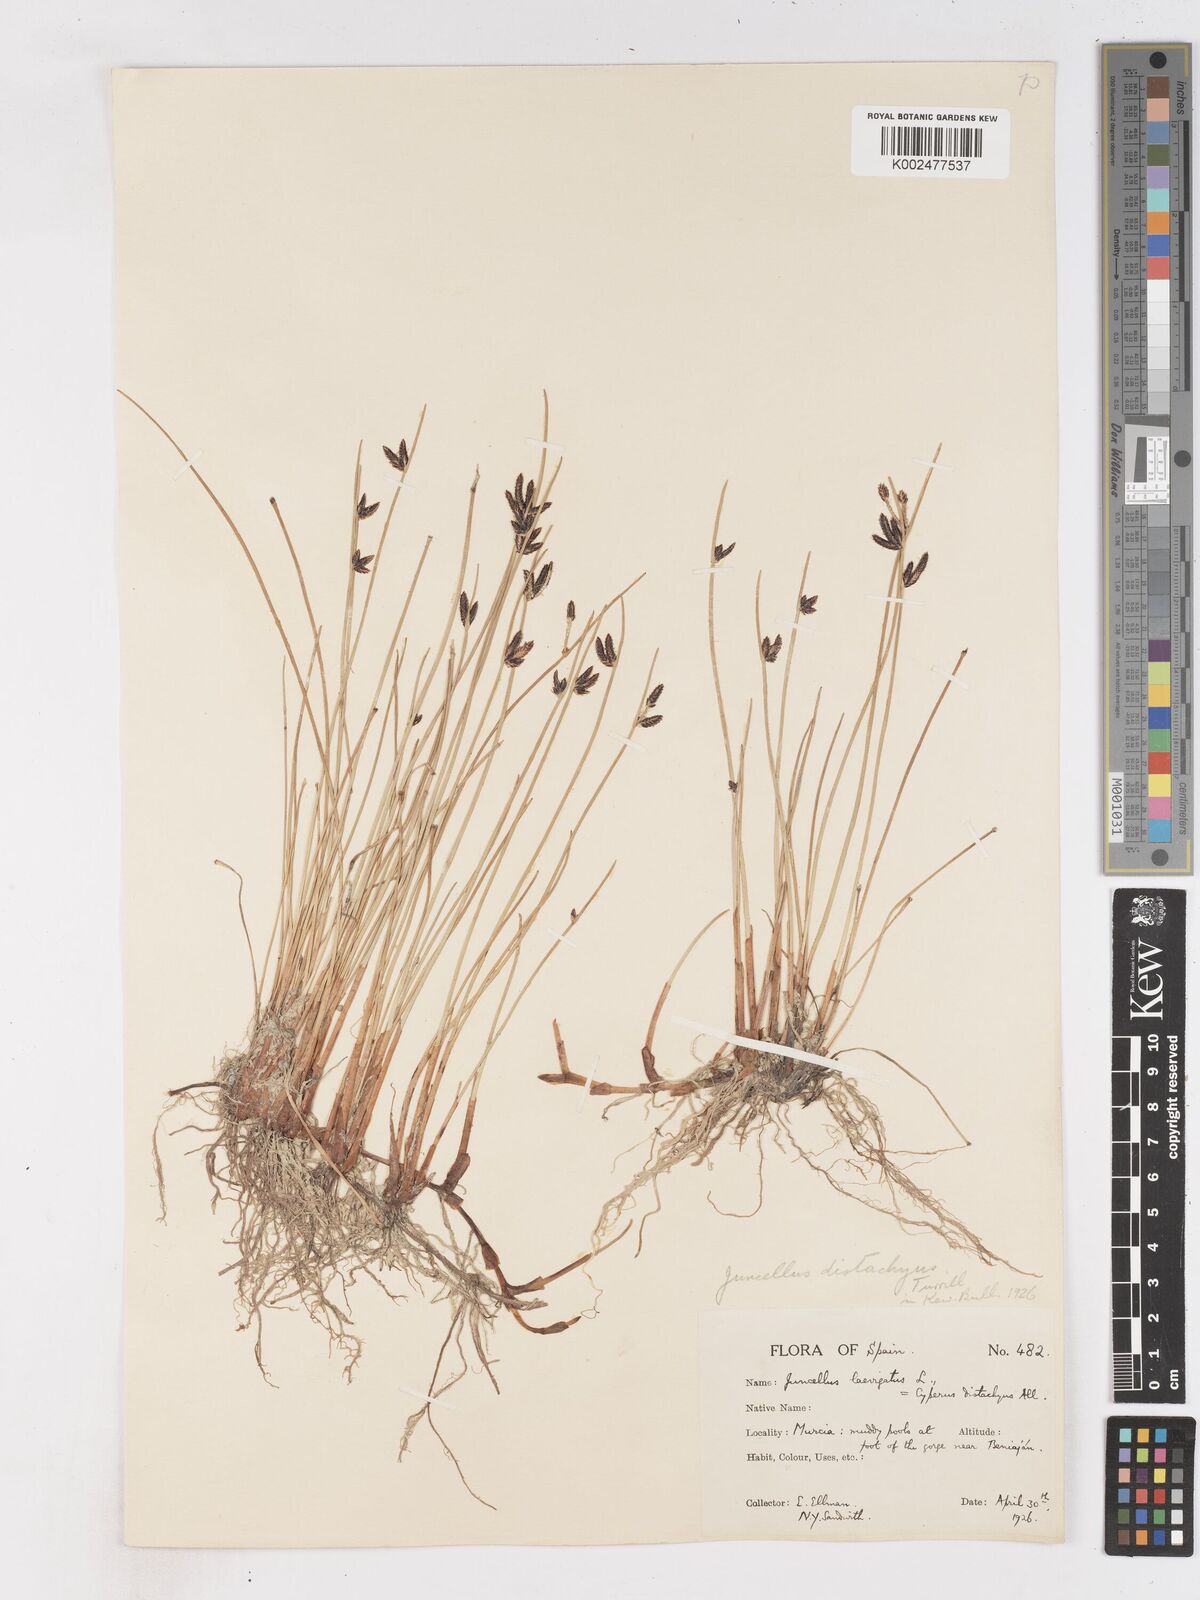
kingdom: Plantae
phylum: Tracheophyta
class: Liliopsida
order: Poales
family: Cyperaceae
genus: Cyperus
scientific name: Cyperus laevigatus
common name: Smooth flat sedge
